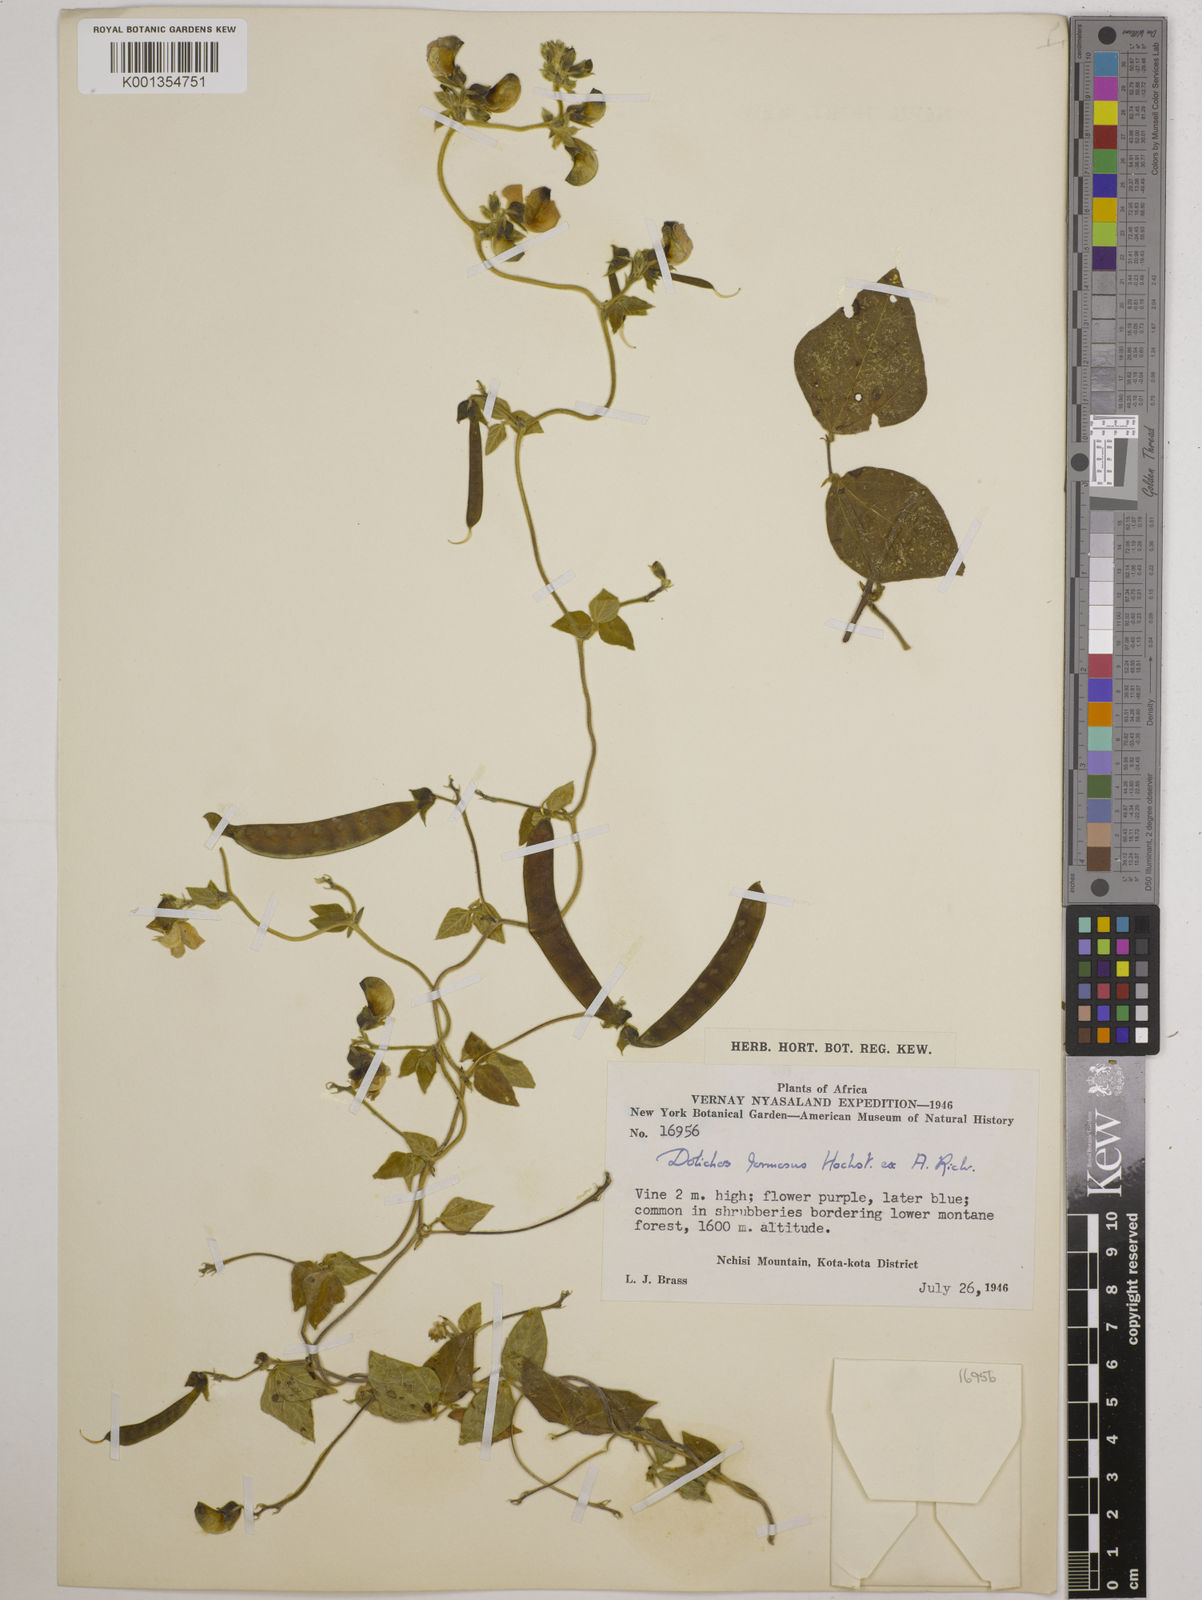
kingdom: Plantae
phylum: Tracheophyta
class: Magnoliopsida
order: Fabales
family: Fabaceae
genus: Dolichos
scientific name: Dolichos
